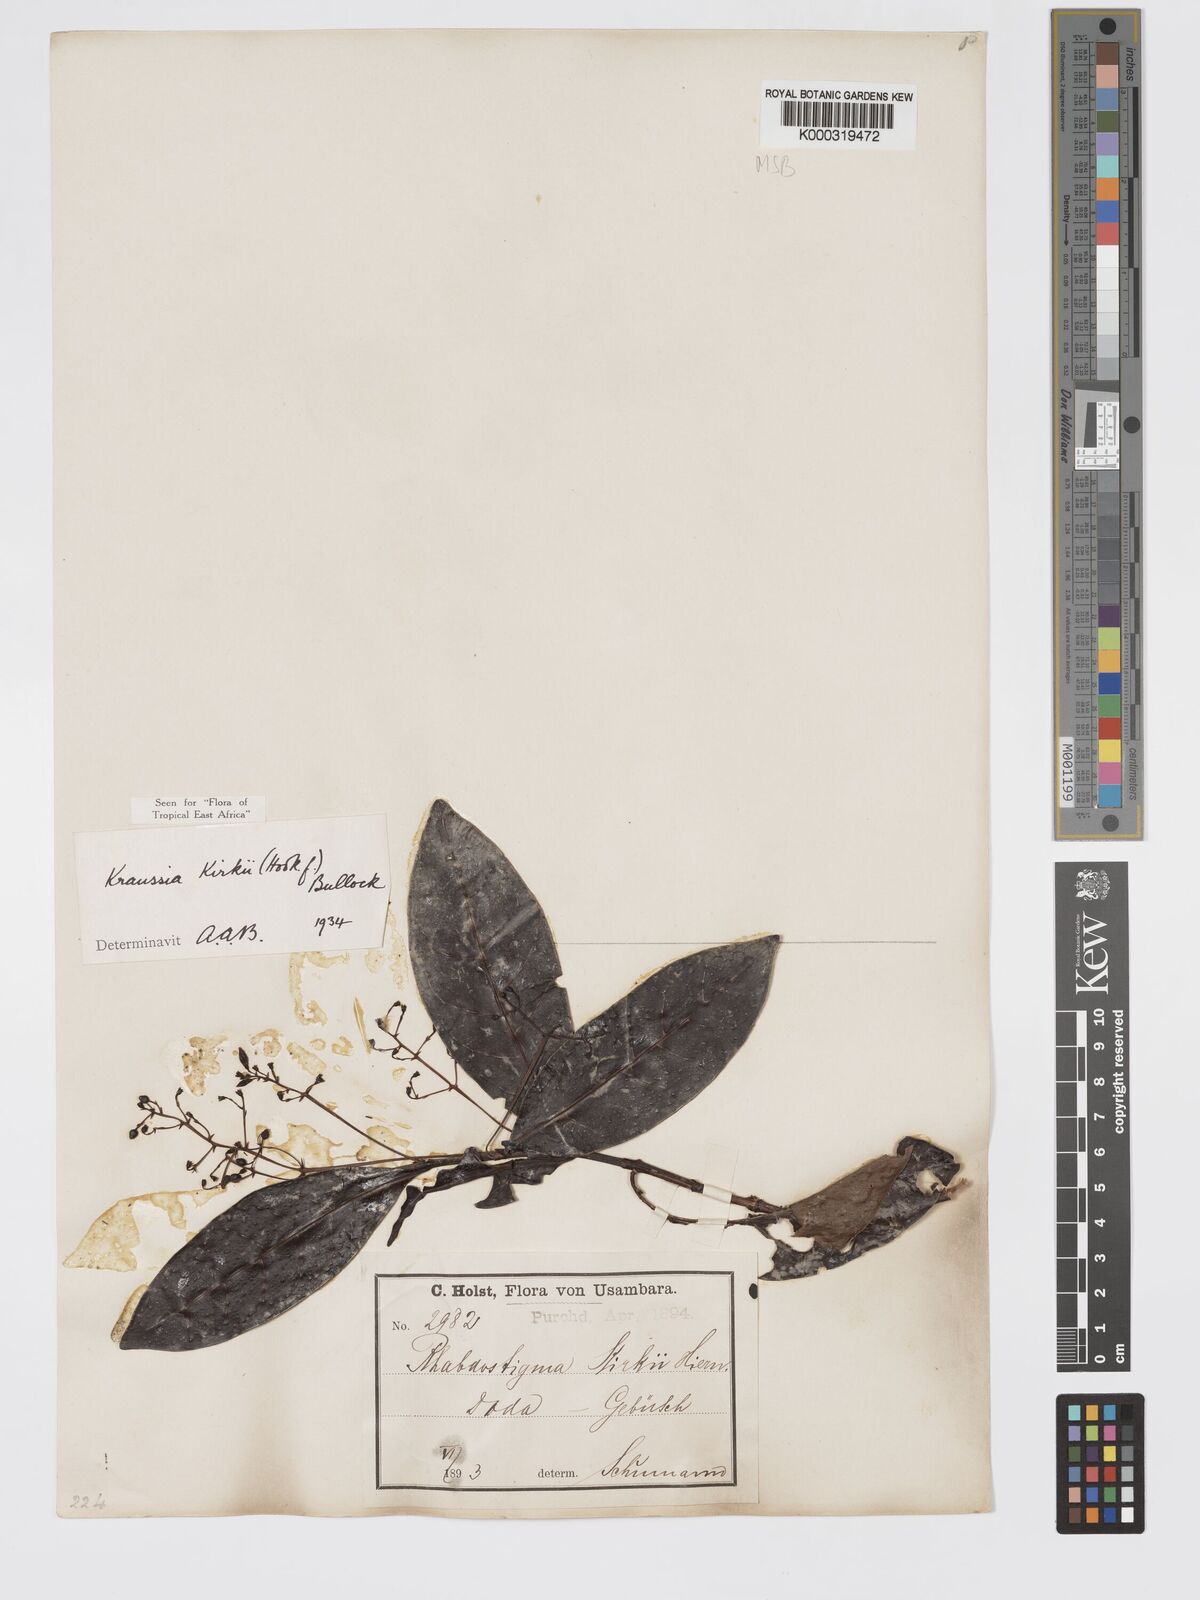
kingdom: Plantae
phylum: Tracheophyta
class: Magnoliopsida
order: Gentianales
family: Rubiaceae
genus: Kraussia
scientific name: Kraussia kirkii
